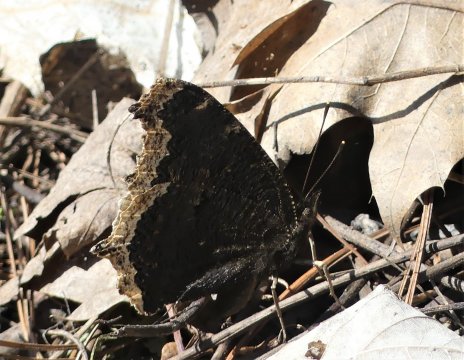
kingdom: Animalia
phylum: Arthropoda
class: Insecta
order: Lepidoptera
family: Nymphalidae
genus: Nymphalis
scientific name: Nymphalis antiopa
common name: Mourning Cloak
